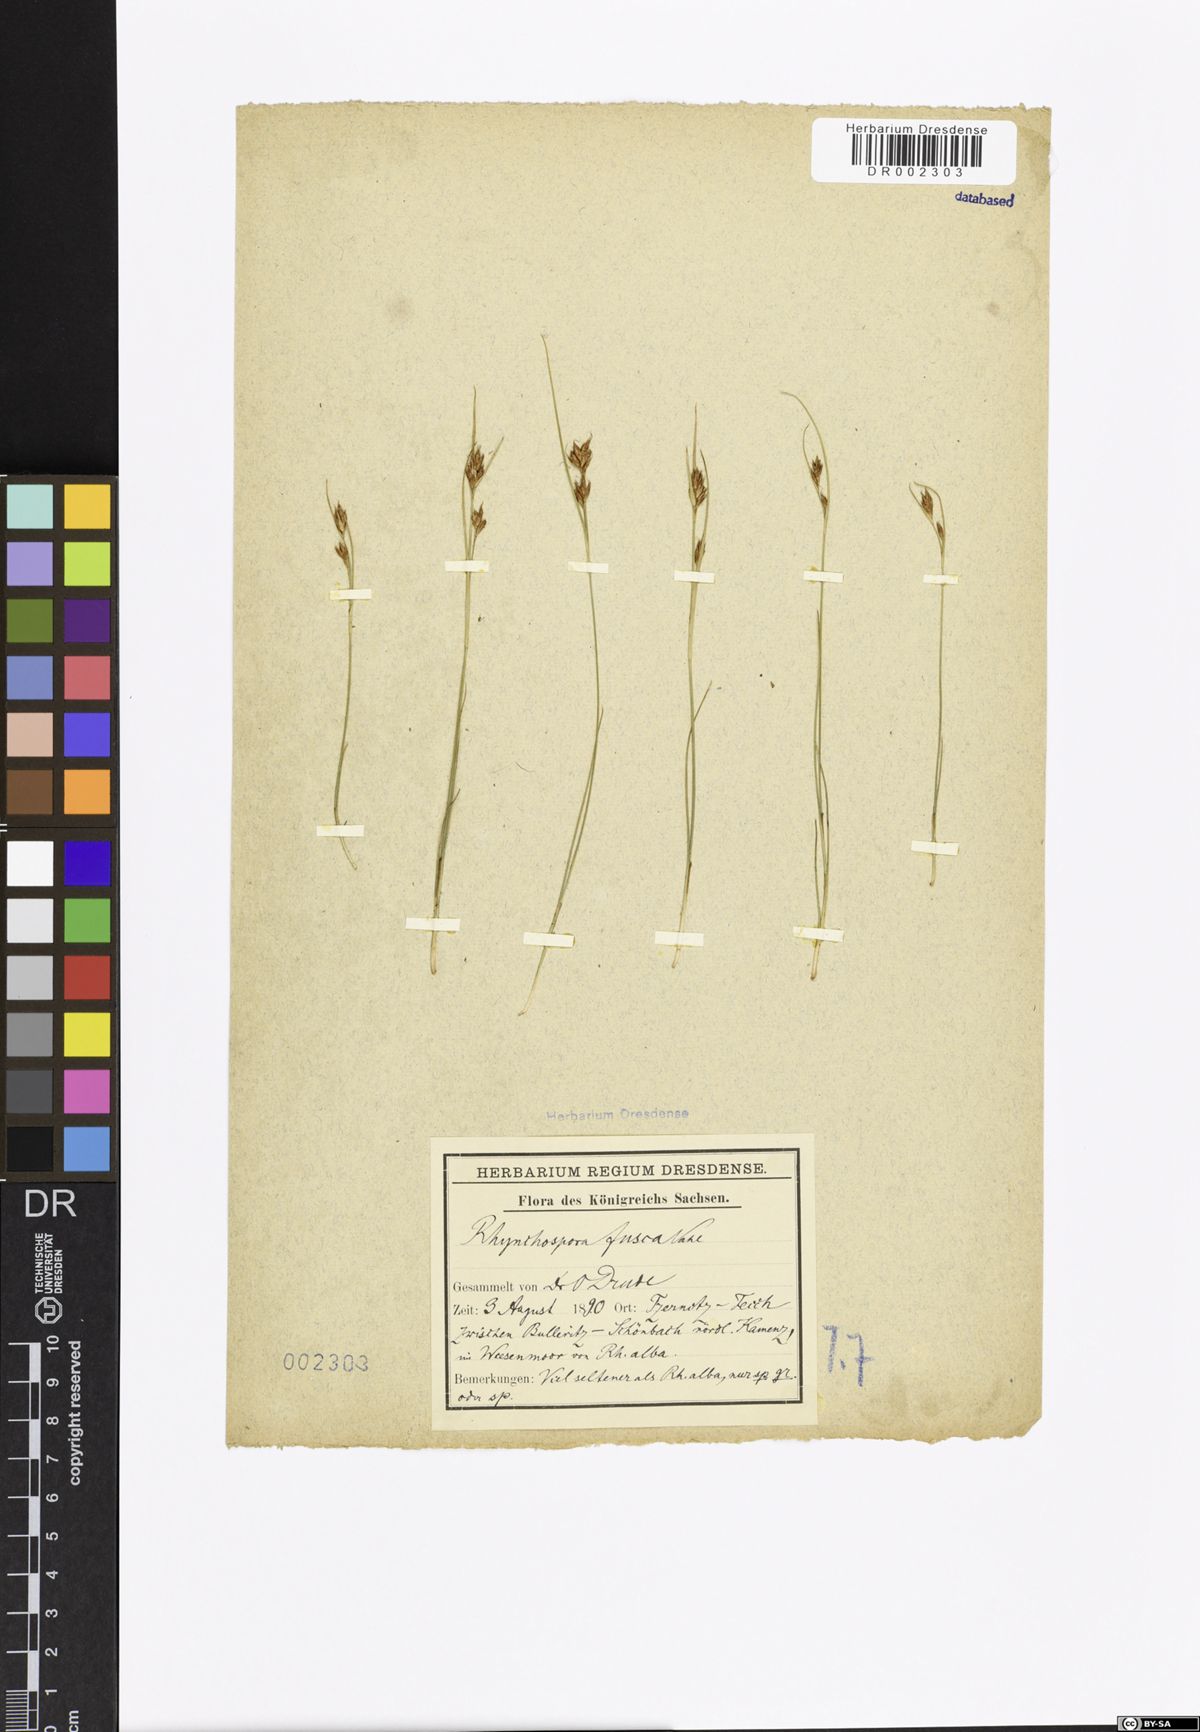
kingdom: Plantae
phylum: Tracheophyta
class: Liliopsida
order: Poales
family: Cyperaceae
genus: Rhynchospora
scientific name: Rhynchospora fusca
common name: Brown beak-sedge
